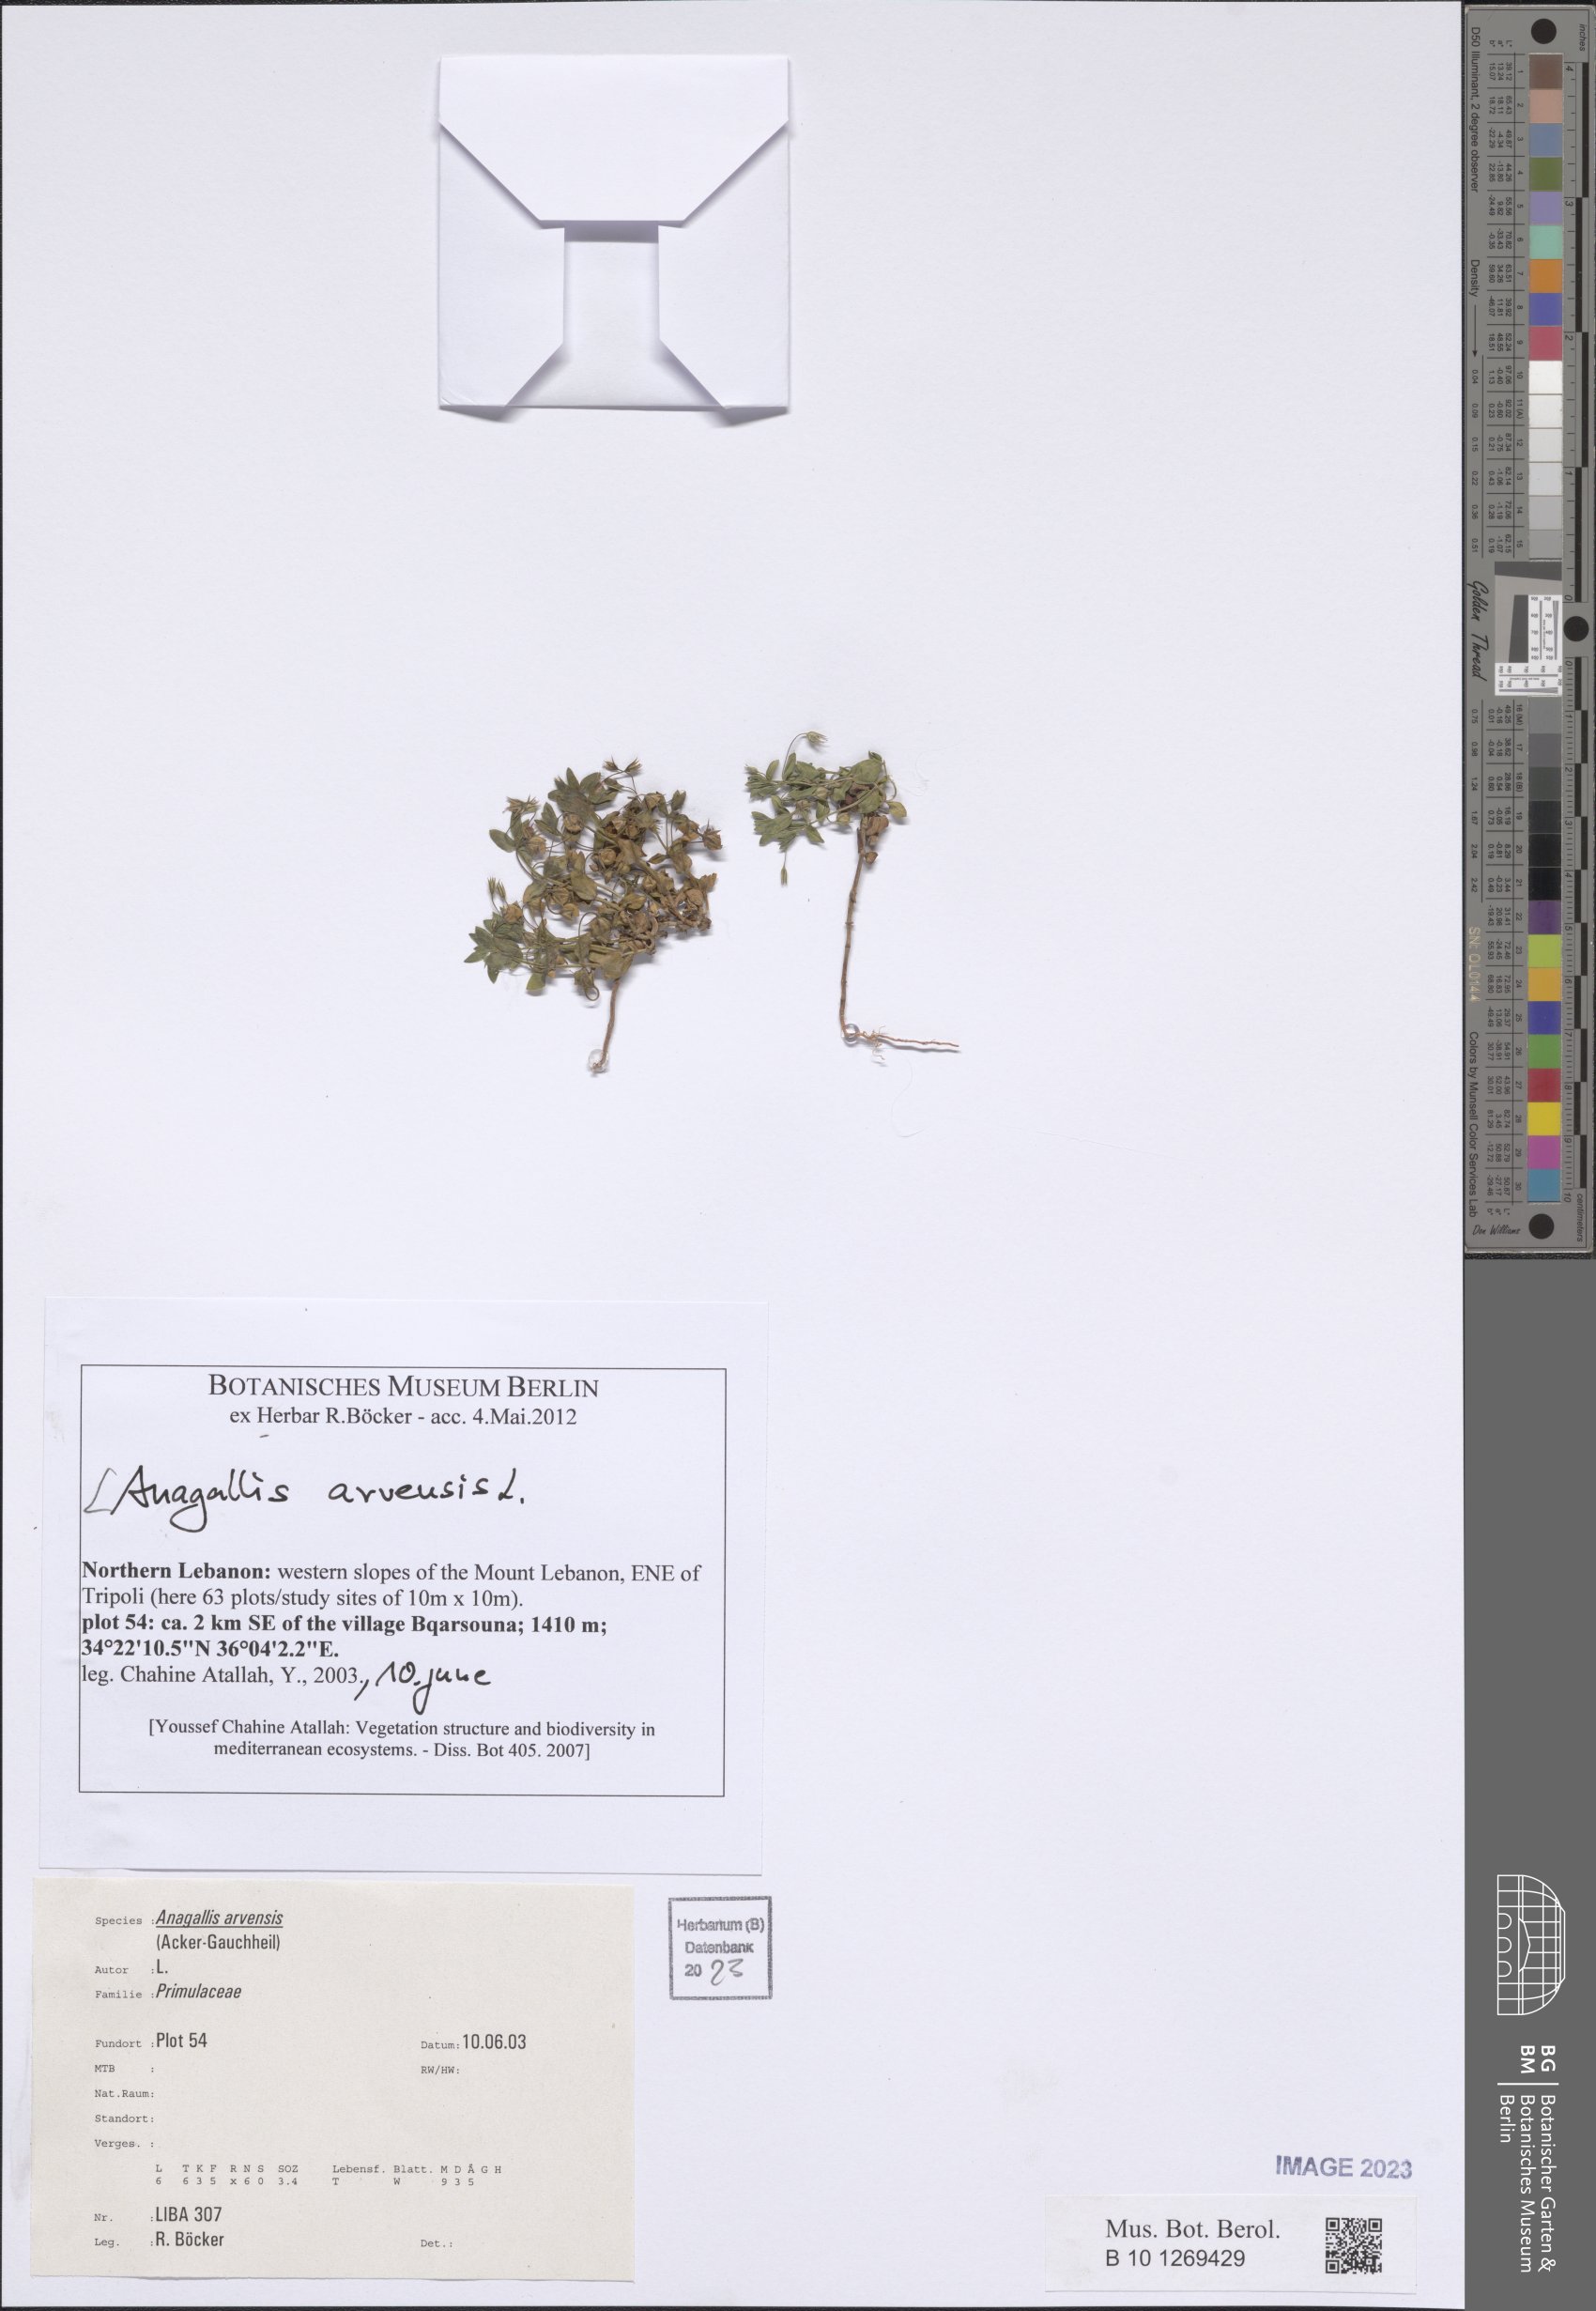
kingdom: Plantae
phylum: Tracheophyta
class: Magnoliopsida
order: Ericales
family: Primulaceae
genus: Lysimachia
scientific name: Lysimachia arvensis
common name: Scarlet pimpernel
